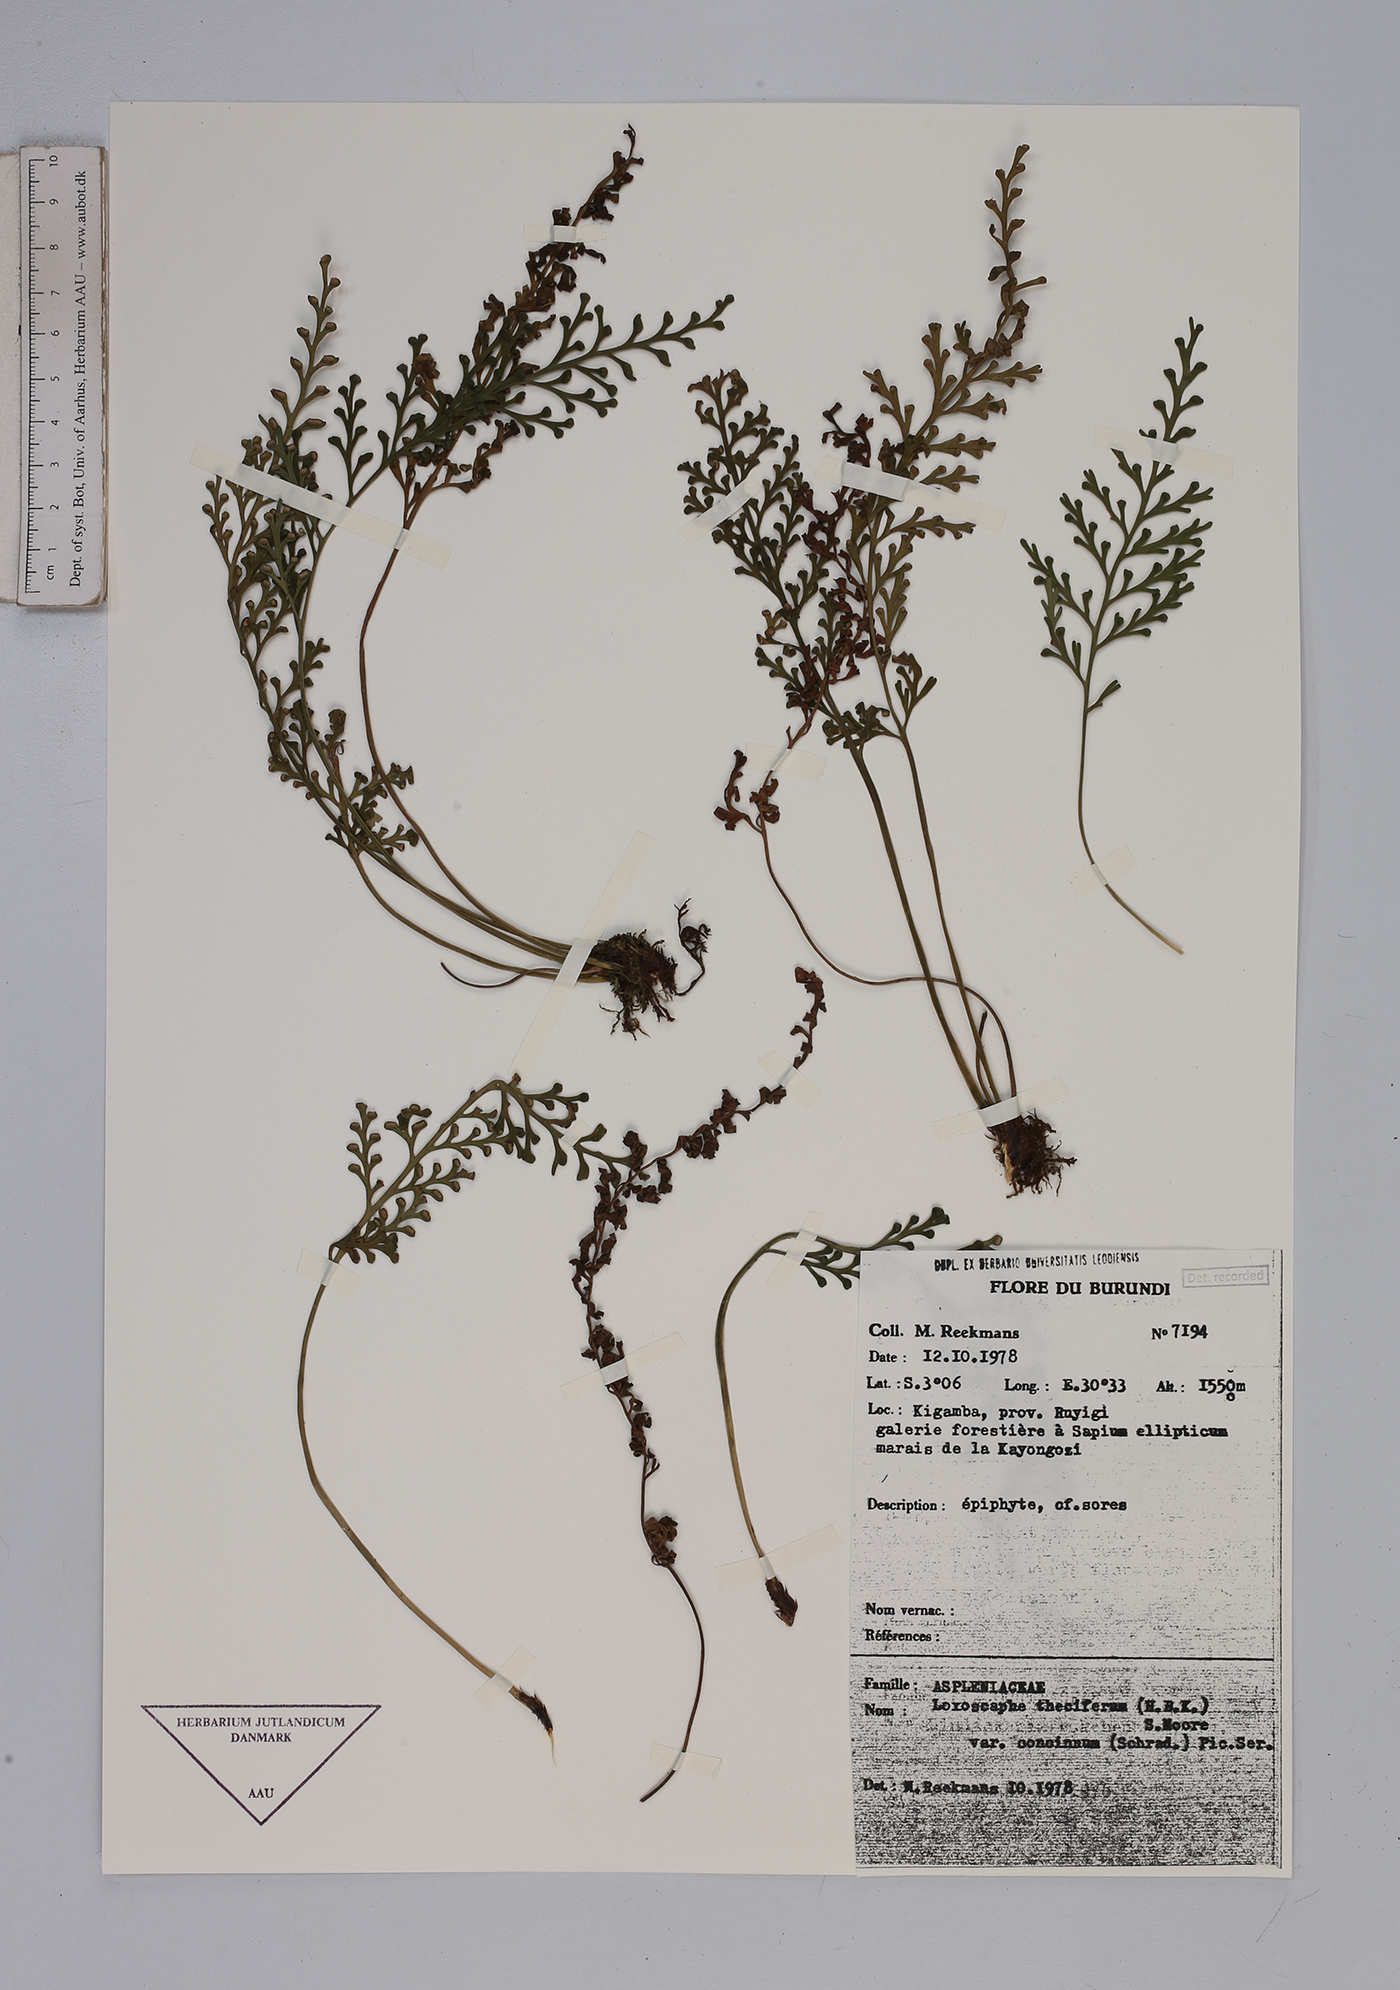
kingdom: Plantae
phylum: Tracheophyta
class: Polypodiopsida
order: Polypodiales
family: Aspleniaceae
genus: Asplenium
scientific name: Asplenium theciferum
